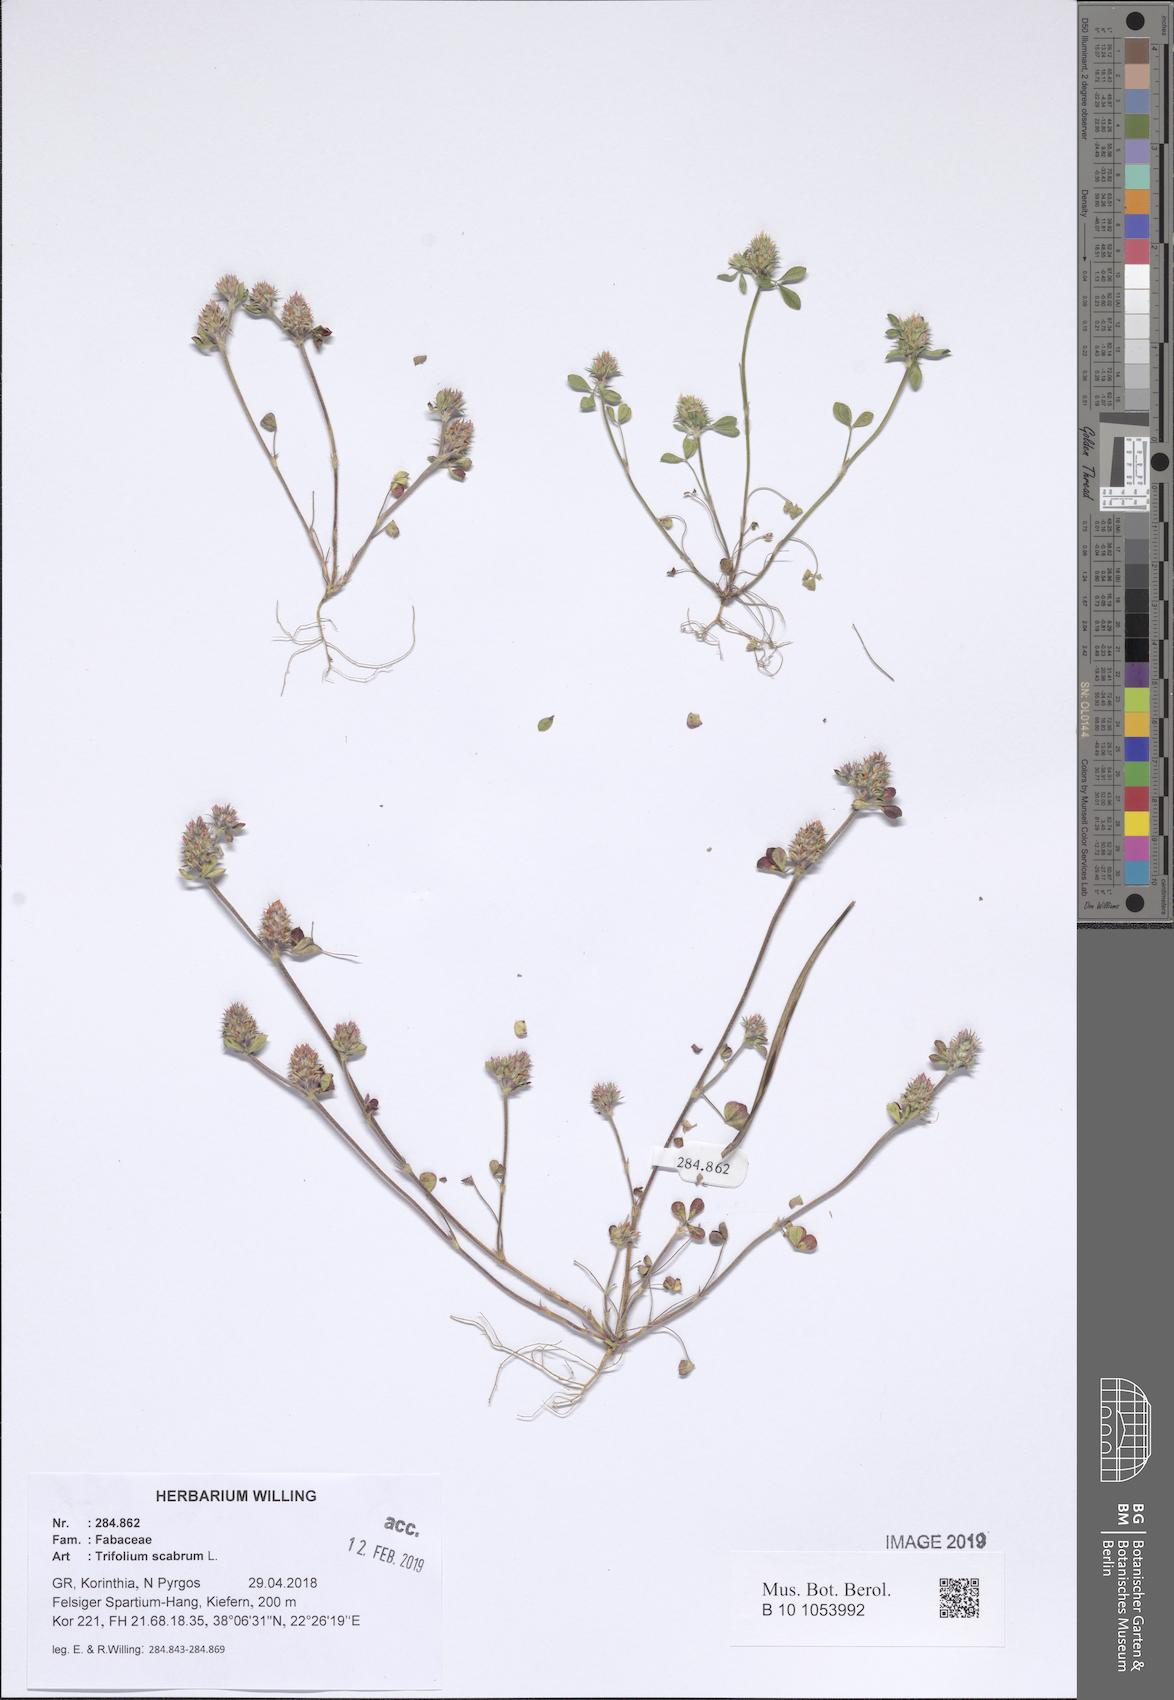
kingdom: Plantae
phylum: Tracheophyta
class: Magnoliopsida
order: Fabales
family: Fabaceae
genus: Trifolium
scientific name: Trifolium scabrum
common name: Rough clover
